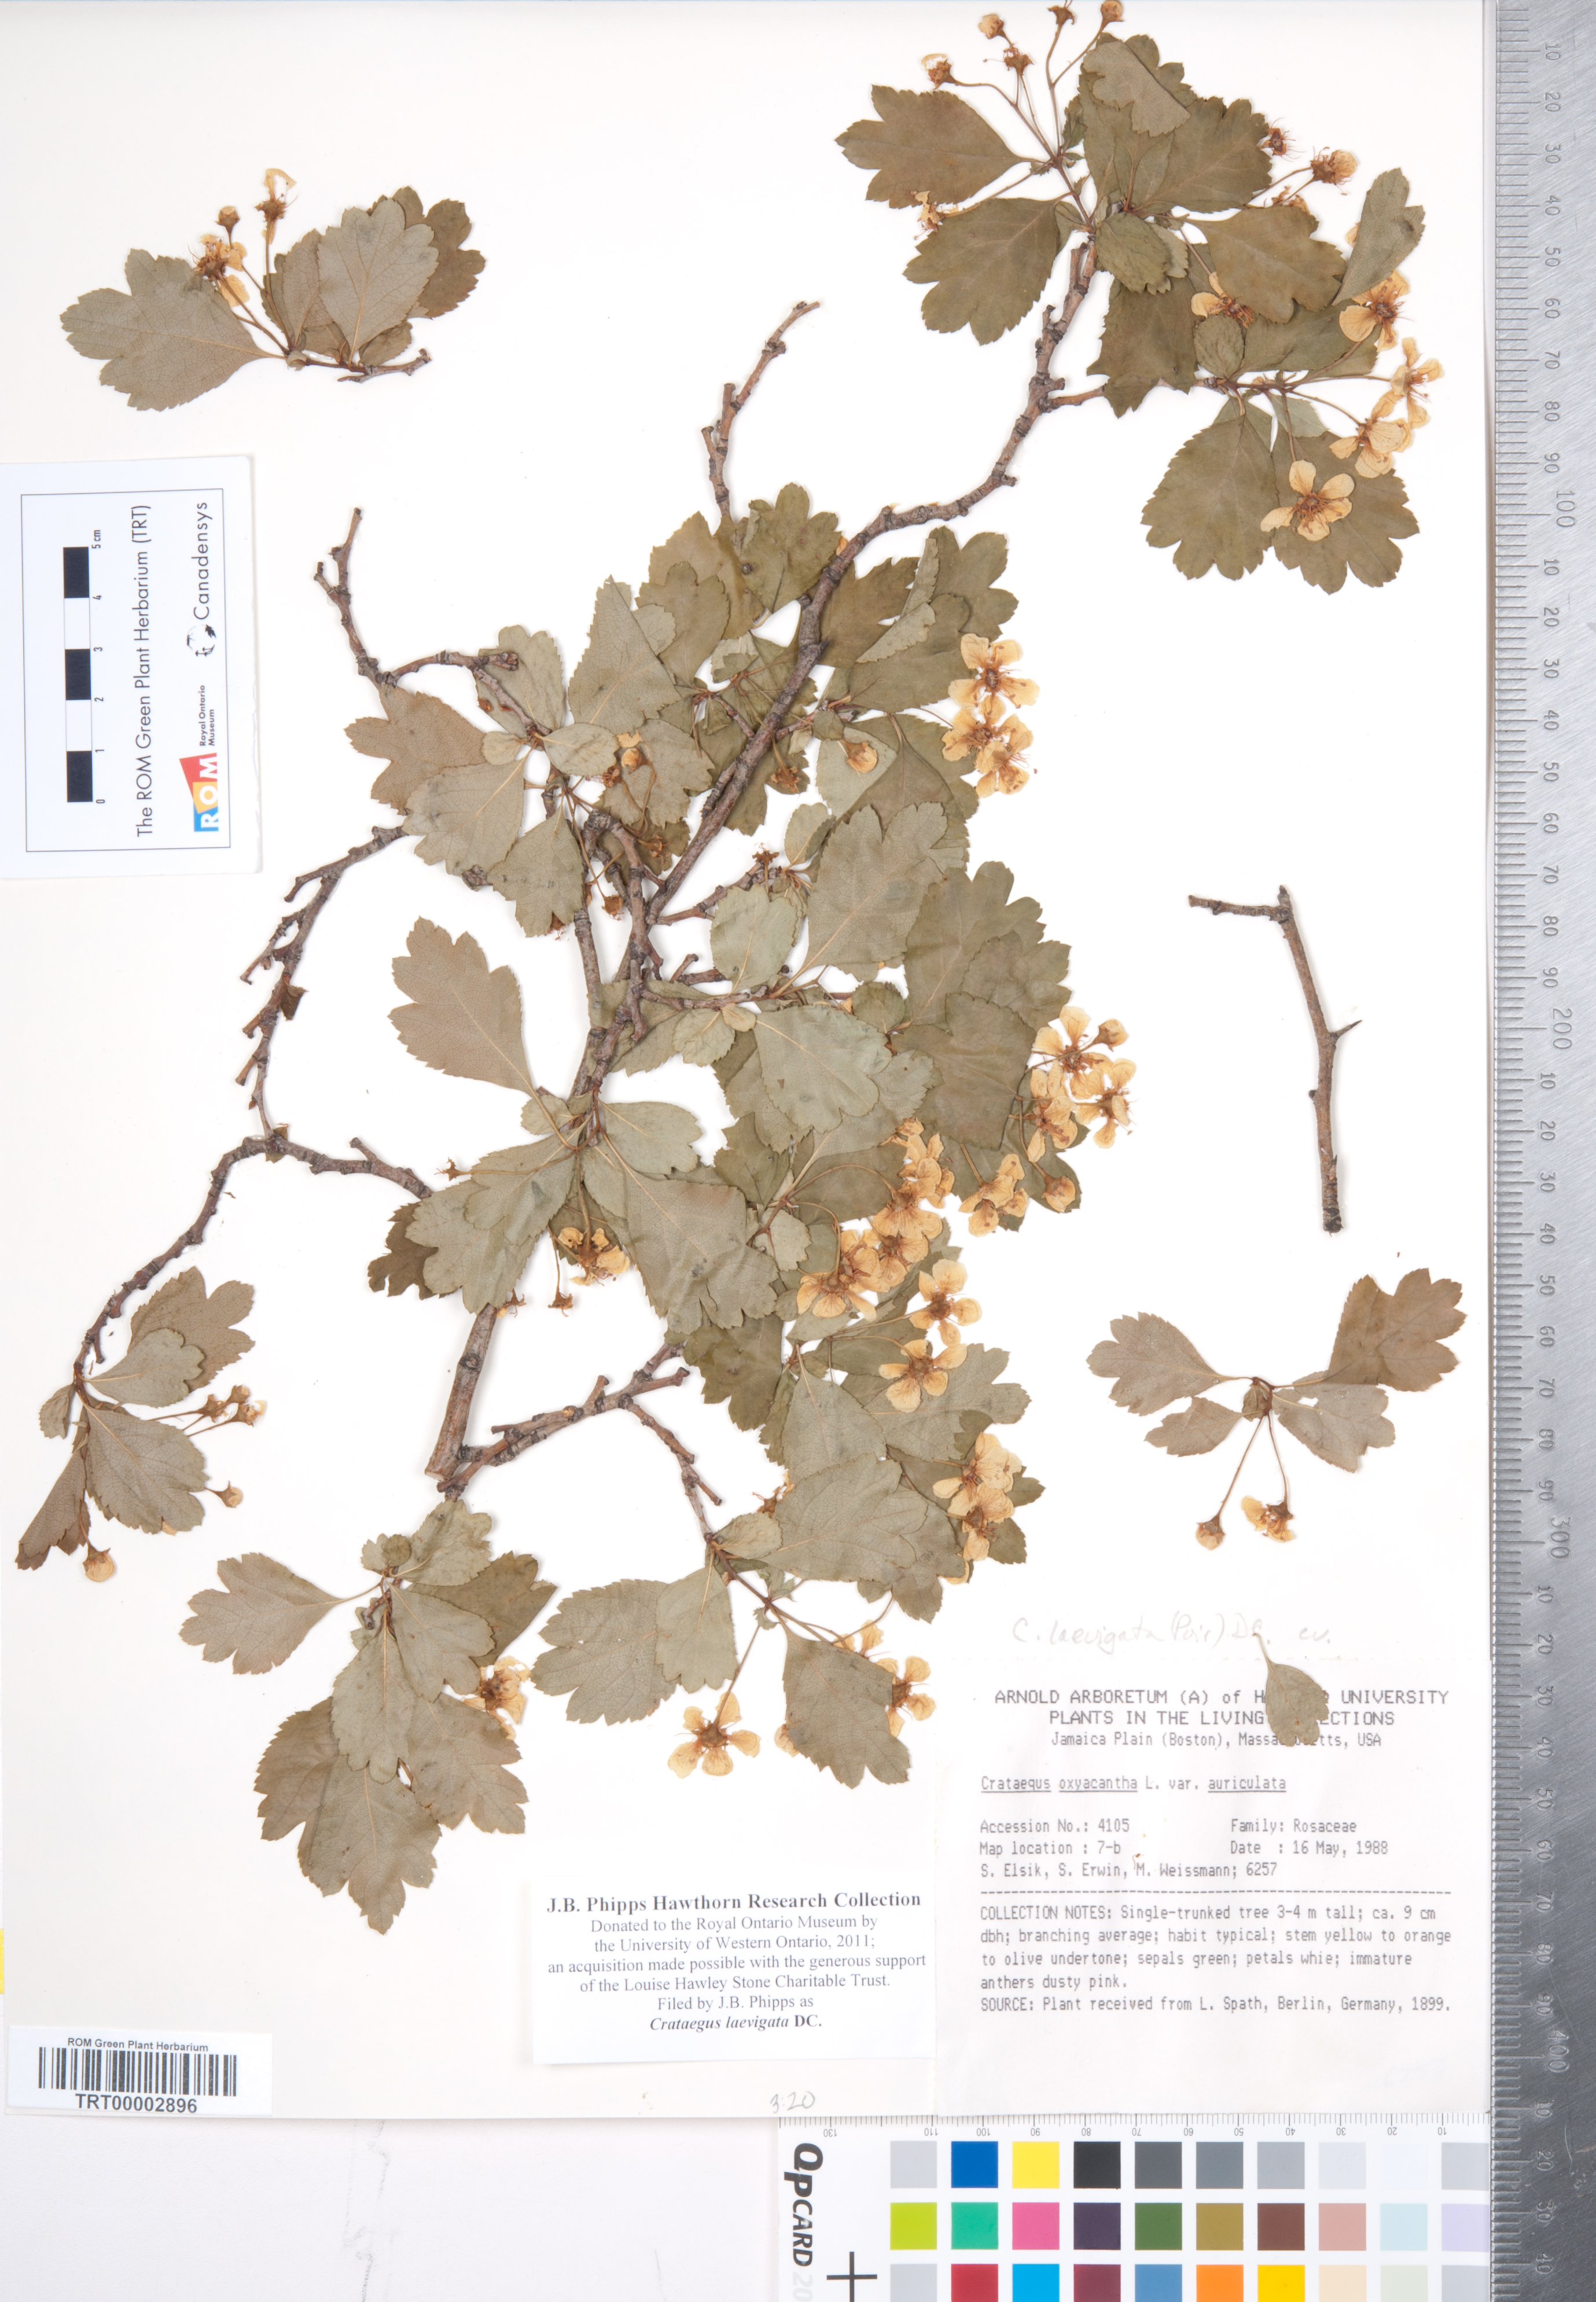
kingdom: Plantae
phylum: Tracheophyta
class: Magnoliopsida
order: Rosales
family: Rosaceae
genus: Crataegus
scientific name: Crataegus laevigata
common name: Midland hawthorn
